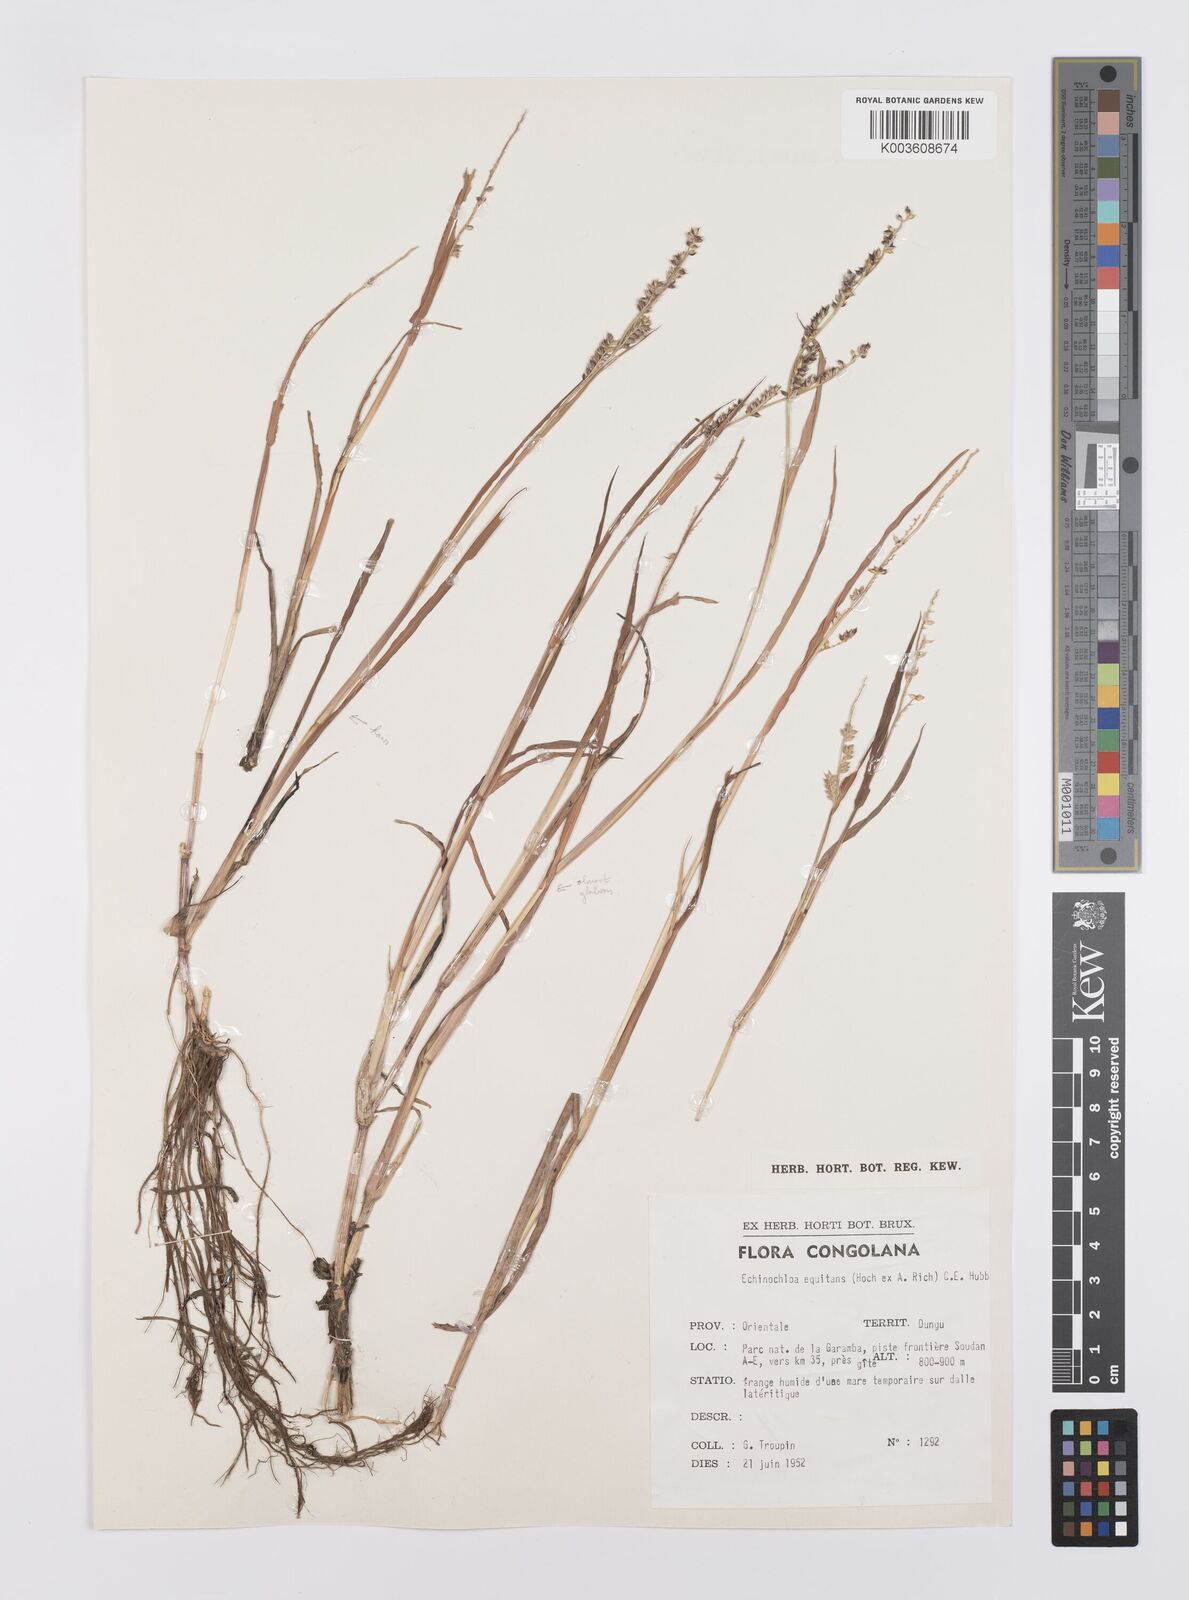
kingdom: Plantae
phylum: Tracheophyta
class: Liliopsida
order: Poales
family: Poaceae
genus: Echinochloa
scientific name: Echinochloa haploclada
